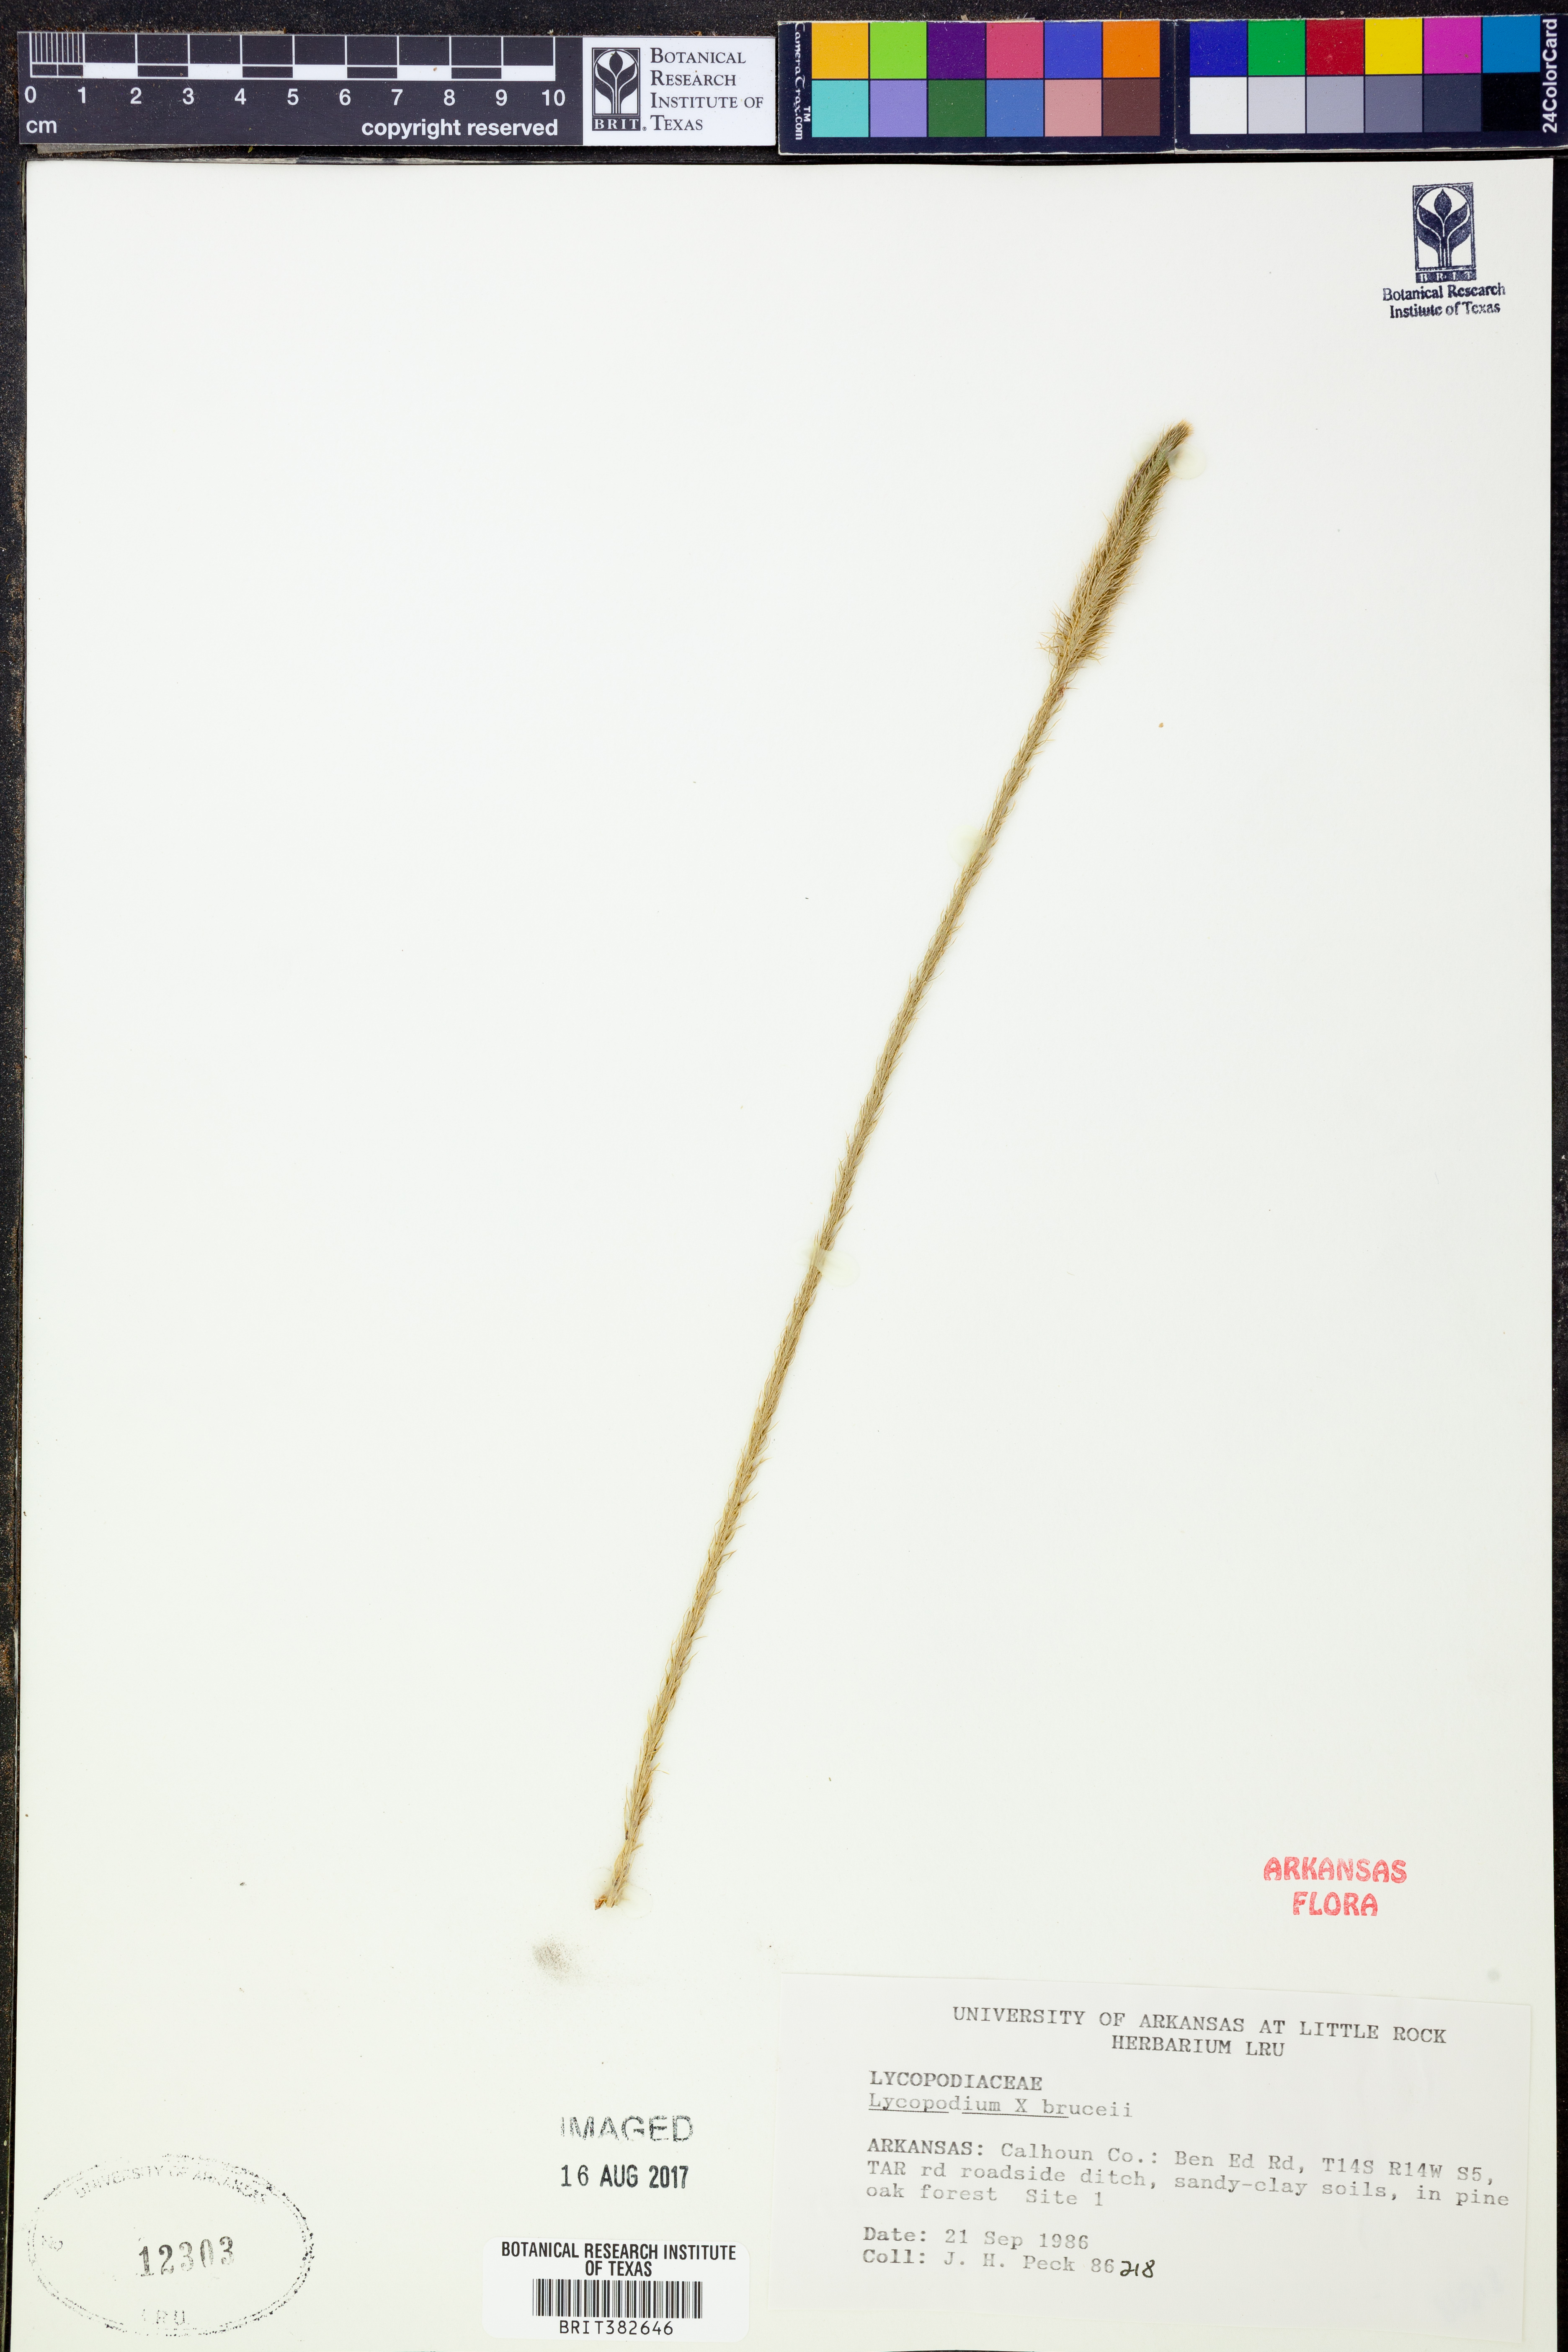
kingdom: Plantae
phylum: Tracheophyta
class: Lycopodiopsida
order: Lycopodiales
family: Lycopodiaceae
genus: Lycopodiella
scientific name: Lycopodiella brucei
